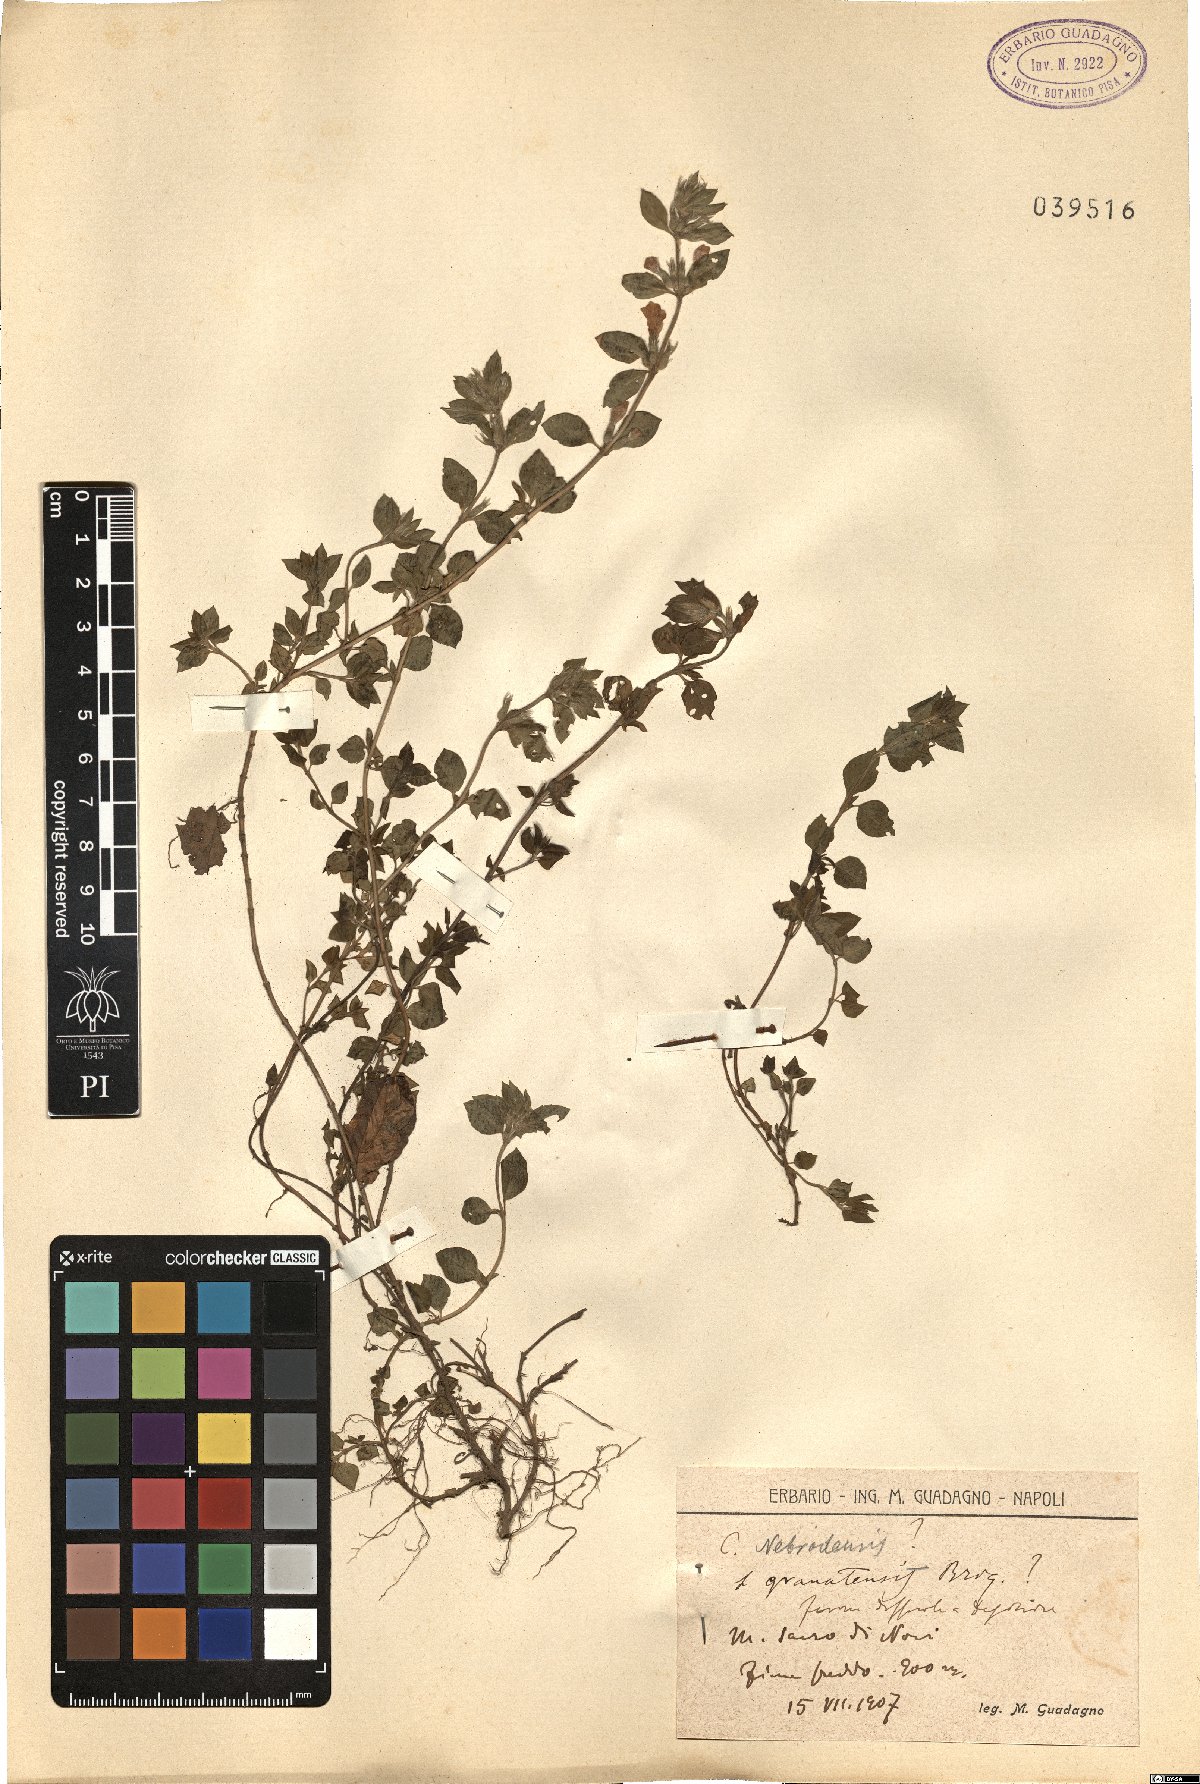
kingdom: Plantae
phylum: Tracheophyta
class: Magnoliopsida
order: Lamiales
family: Lamiaceae
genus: Clinopodium
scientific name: Clinopodium alpinum
